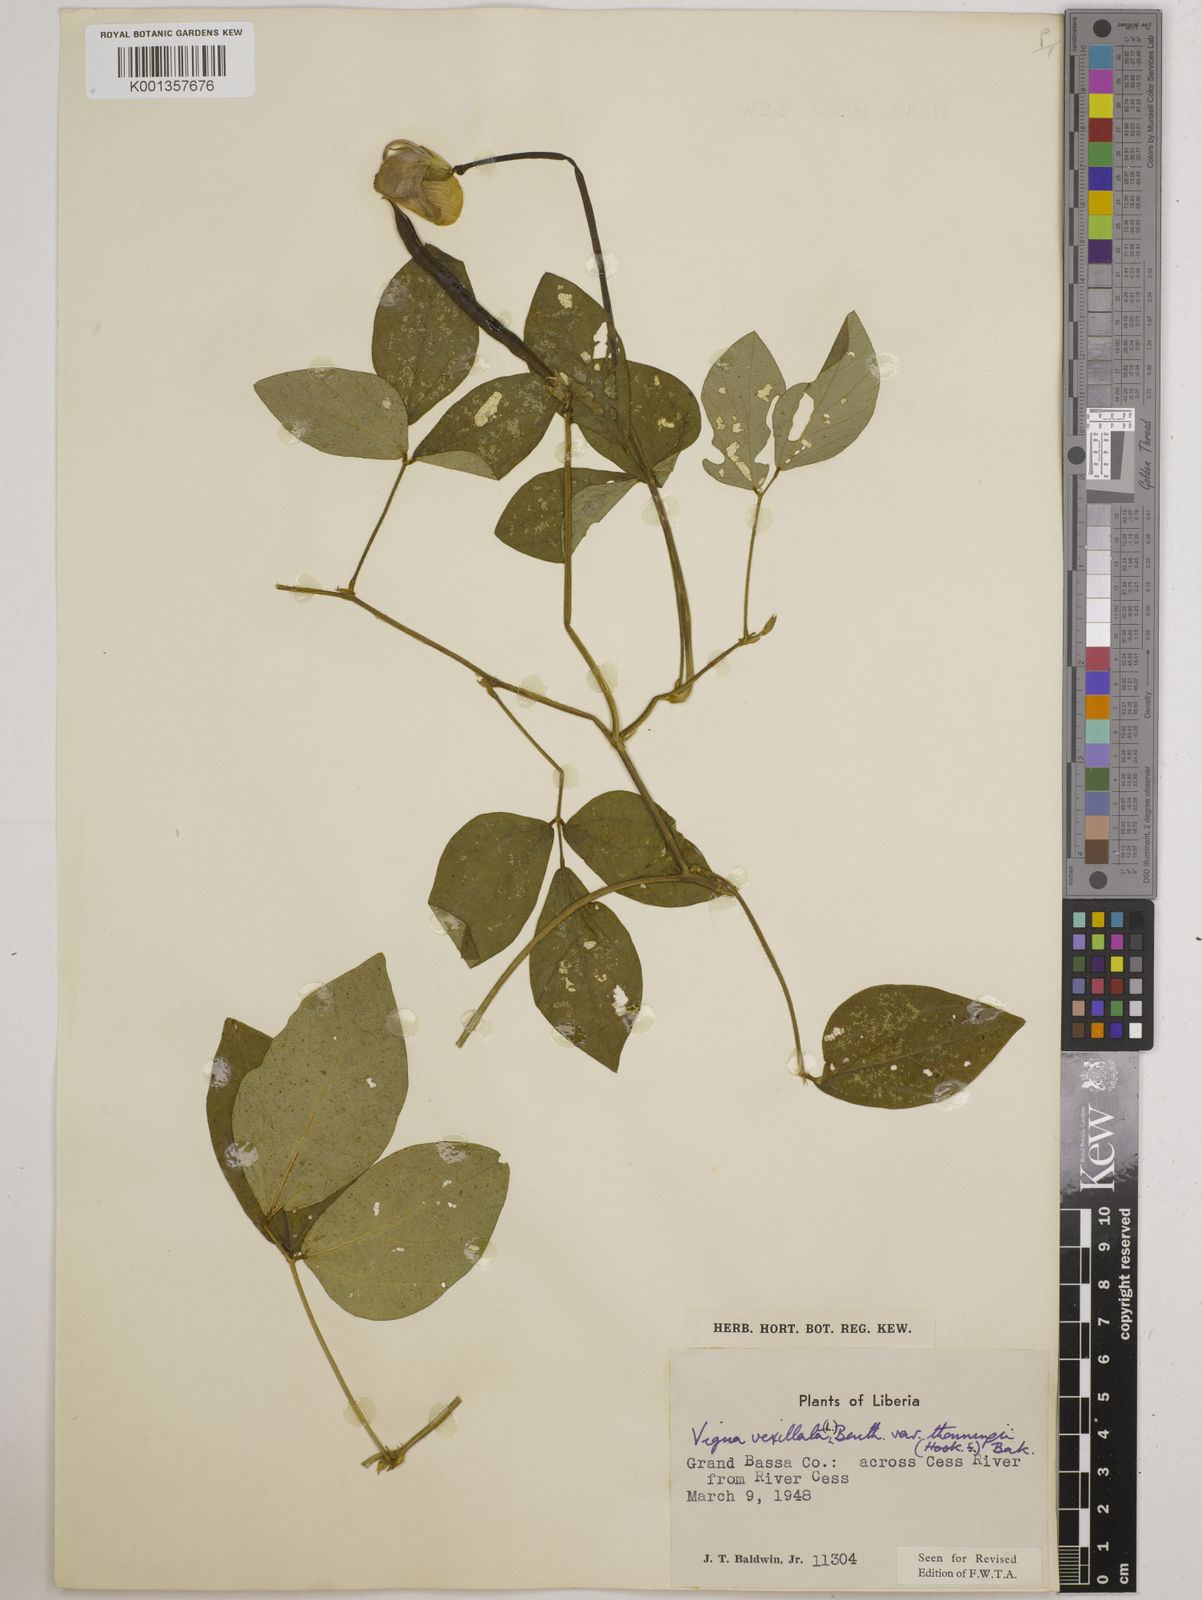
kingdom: Plantae
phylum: Tracheophyta
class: Magnoliopsida
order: Fabales
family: Fabaceae
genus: Vigna
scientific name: Vigna
